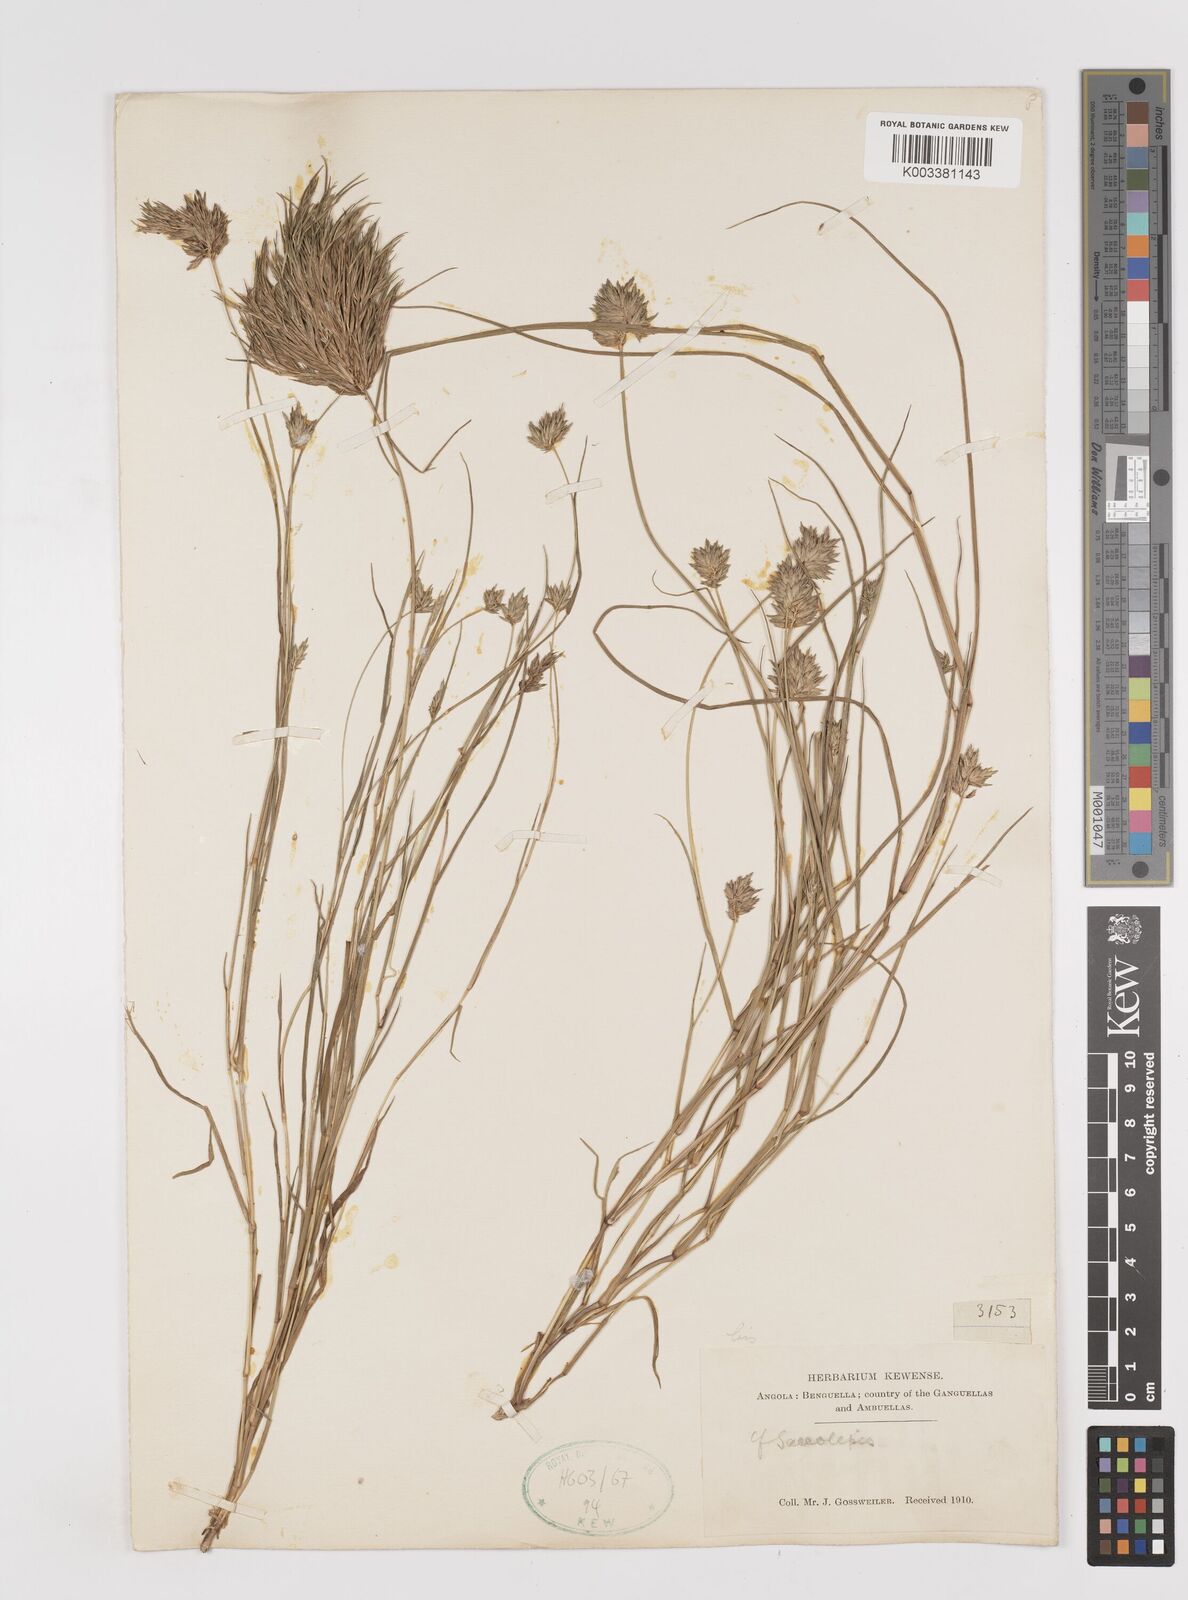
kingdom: Plantae
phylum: Tracheophyta
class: Liliopsida
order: Poales
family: Poaceae
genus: Sacciolepis
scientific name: Sacciolepis seslerioides
